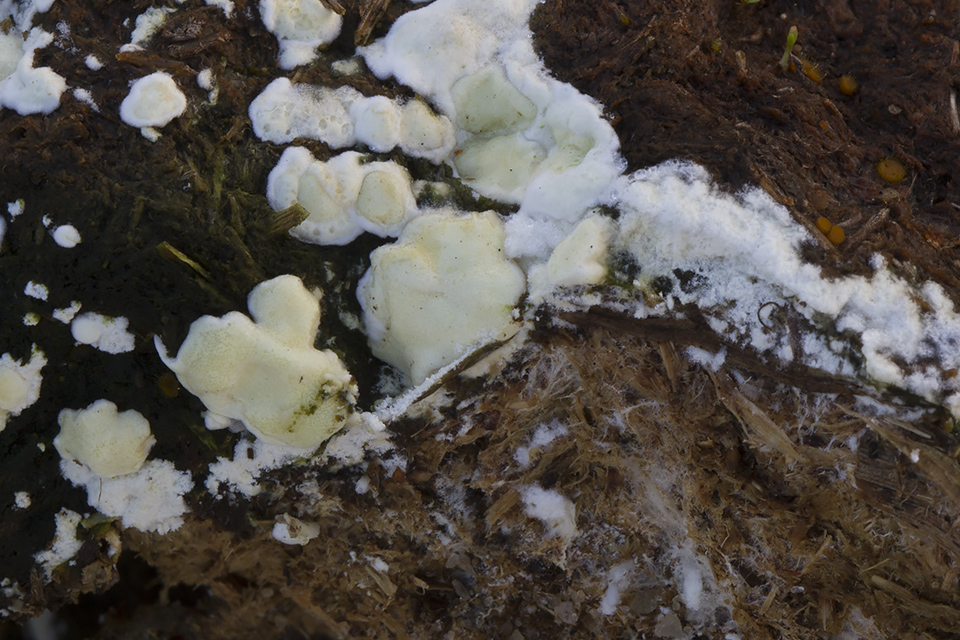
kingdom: Fungi
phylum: Ascomycota
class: Sordariomycetes
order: Hypocreales
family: Hypocreaceae
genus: Trichoderma
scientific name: Trichoderma
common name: kødkerne
